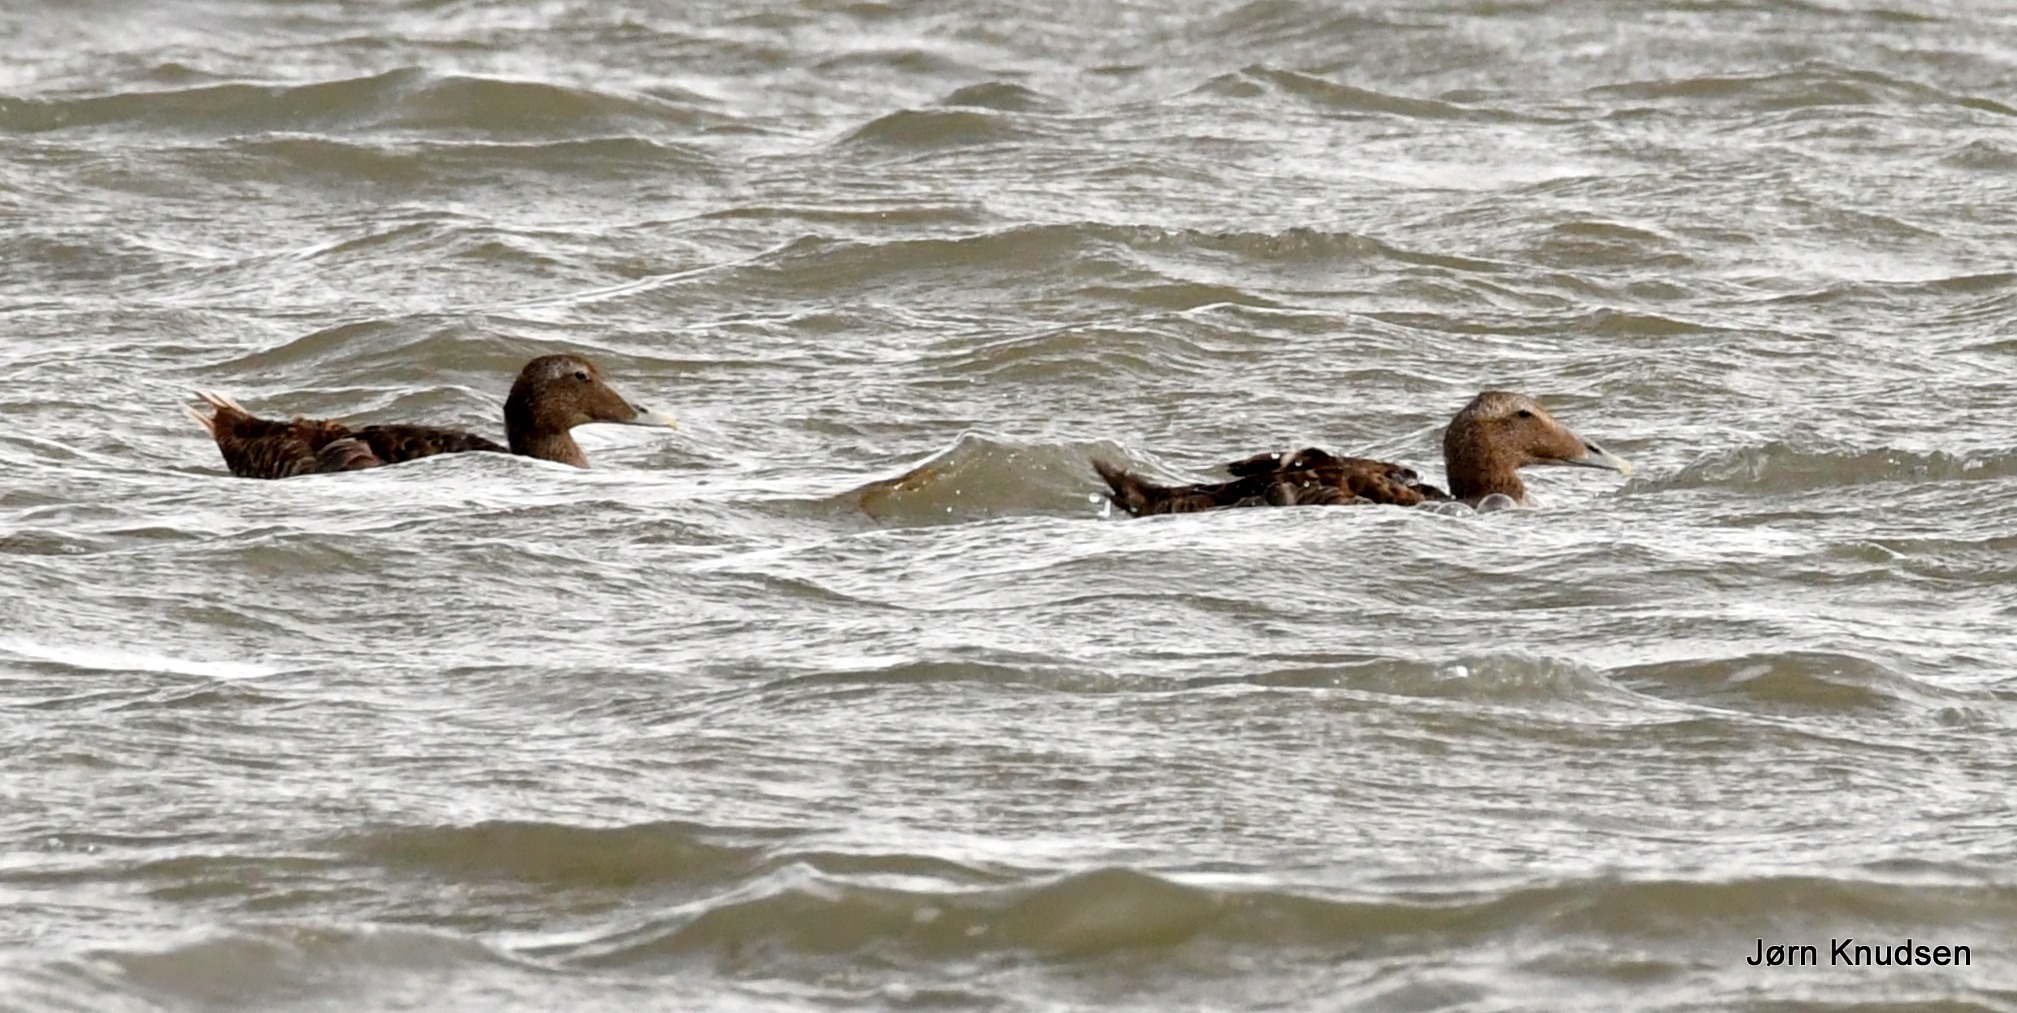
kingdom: Animalia
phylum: Chordata
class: Aves
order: Anseriformes
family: Anatidae
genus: Somateria
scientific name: Somateria mollissima
